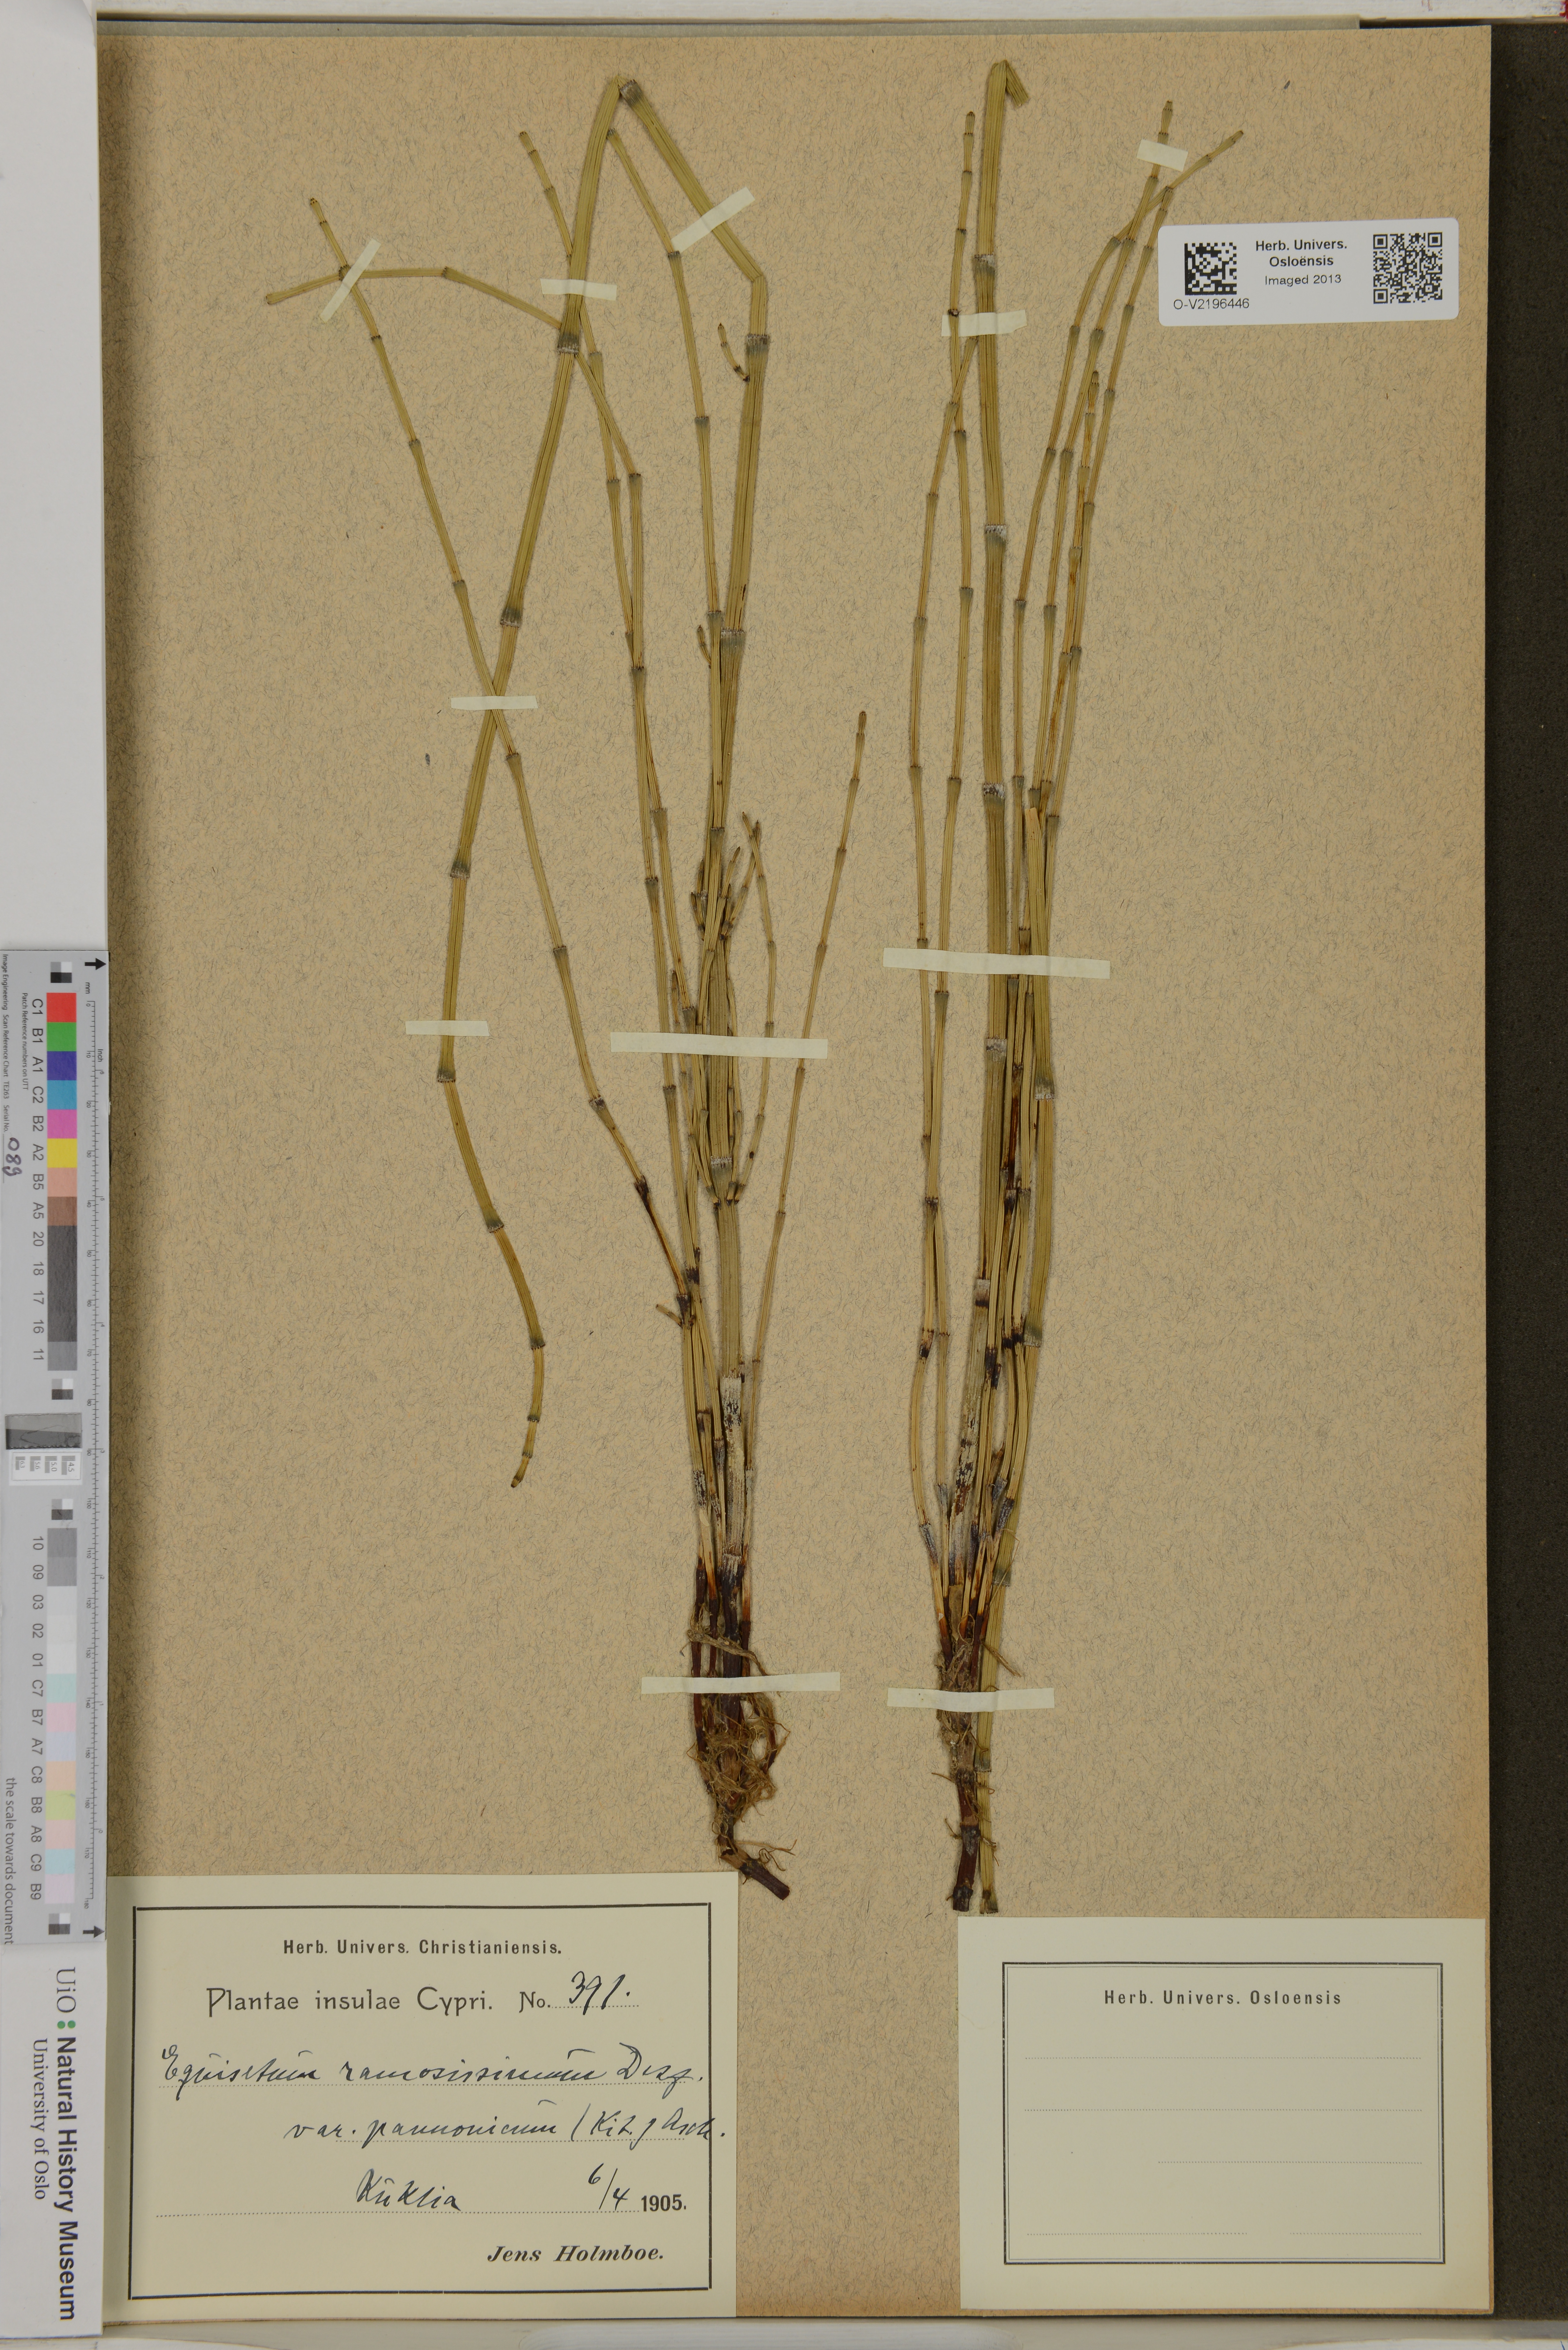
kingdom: Plantae
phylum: Tracheophyta
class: Polypodiopsida
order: Equisetales
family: Equisetaceae
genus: Equisetum
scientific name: Equisetum ramosissimum
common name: Branched horsetail
